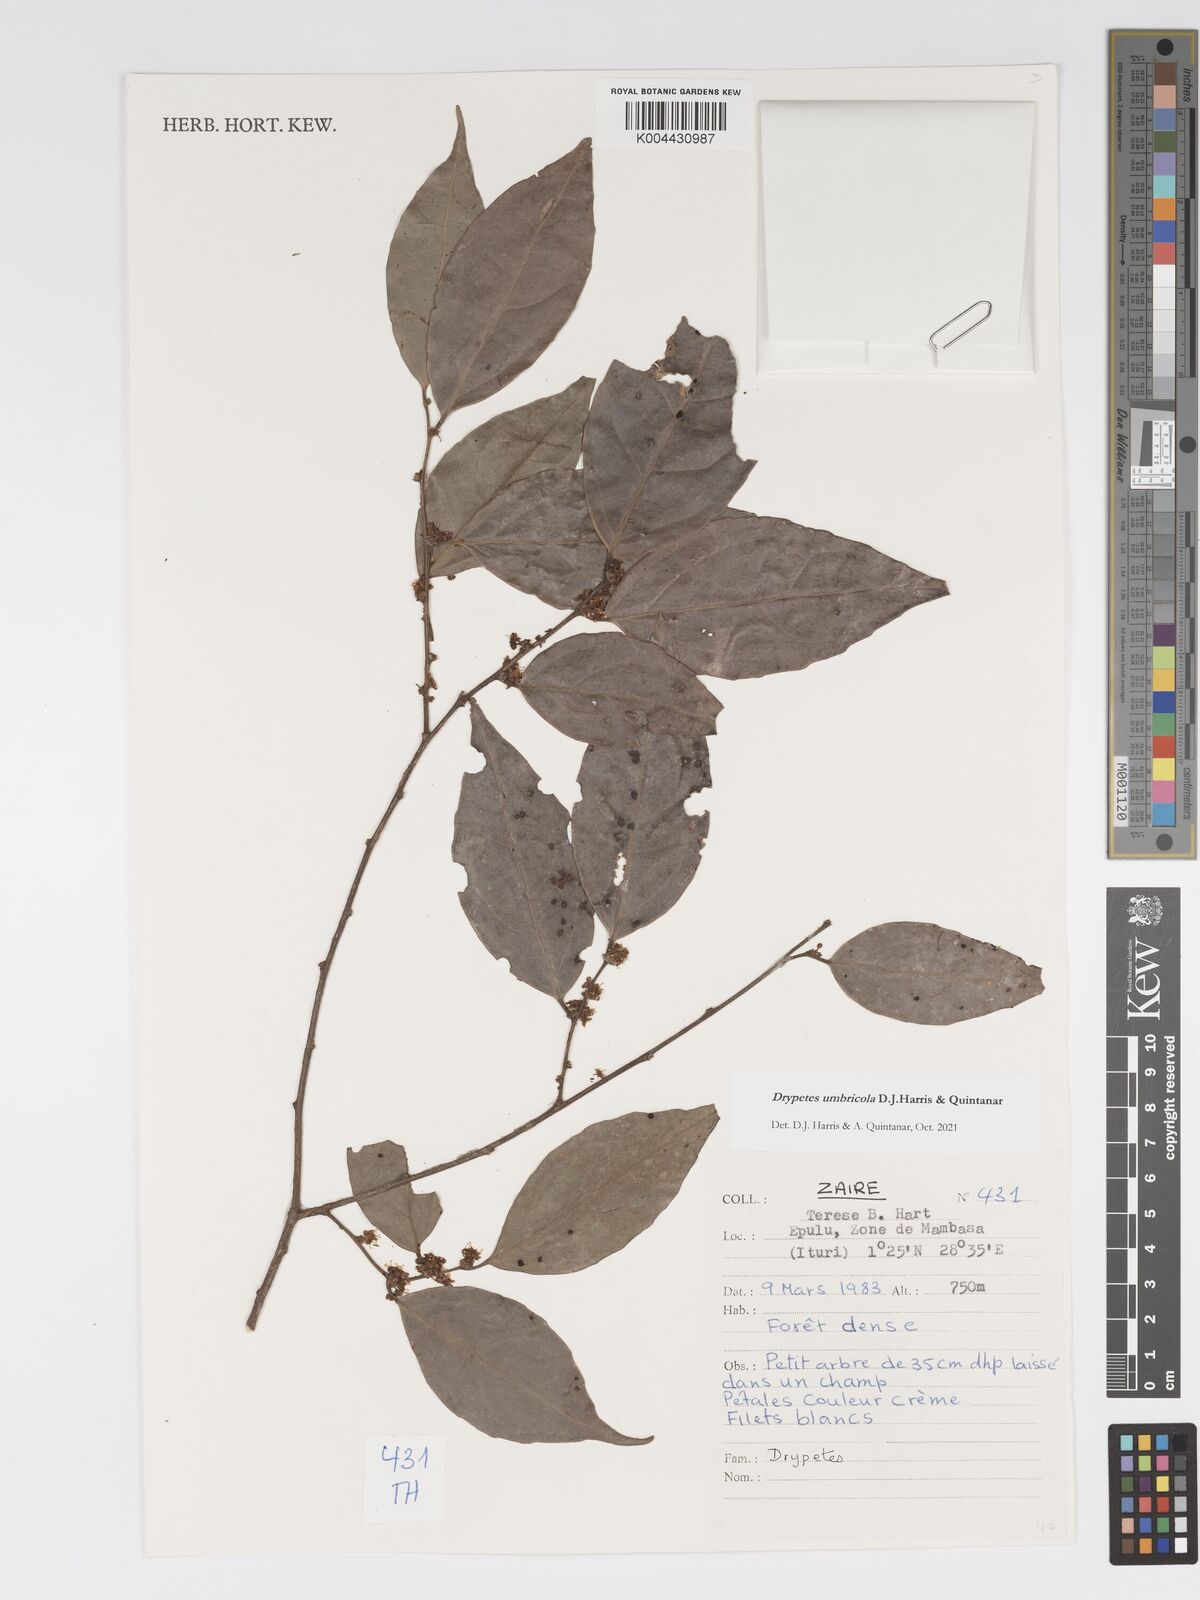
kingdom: Plantae
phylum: Tracheophyta
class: Magnoliopsida
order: Malpighiales
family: Putranjivaceae
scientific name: Putranjivaceae
